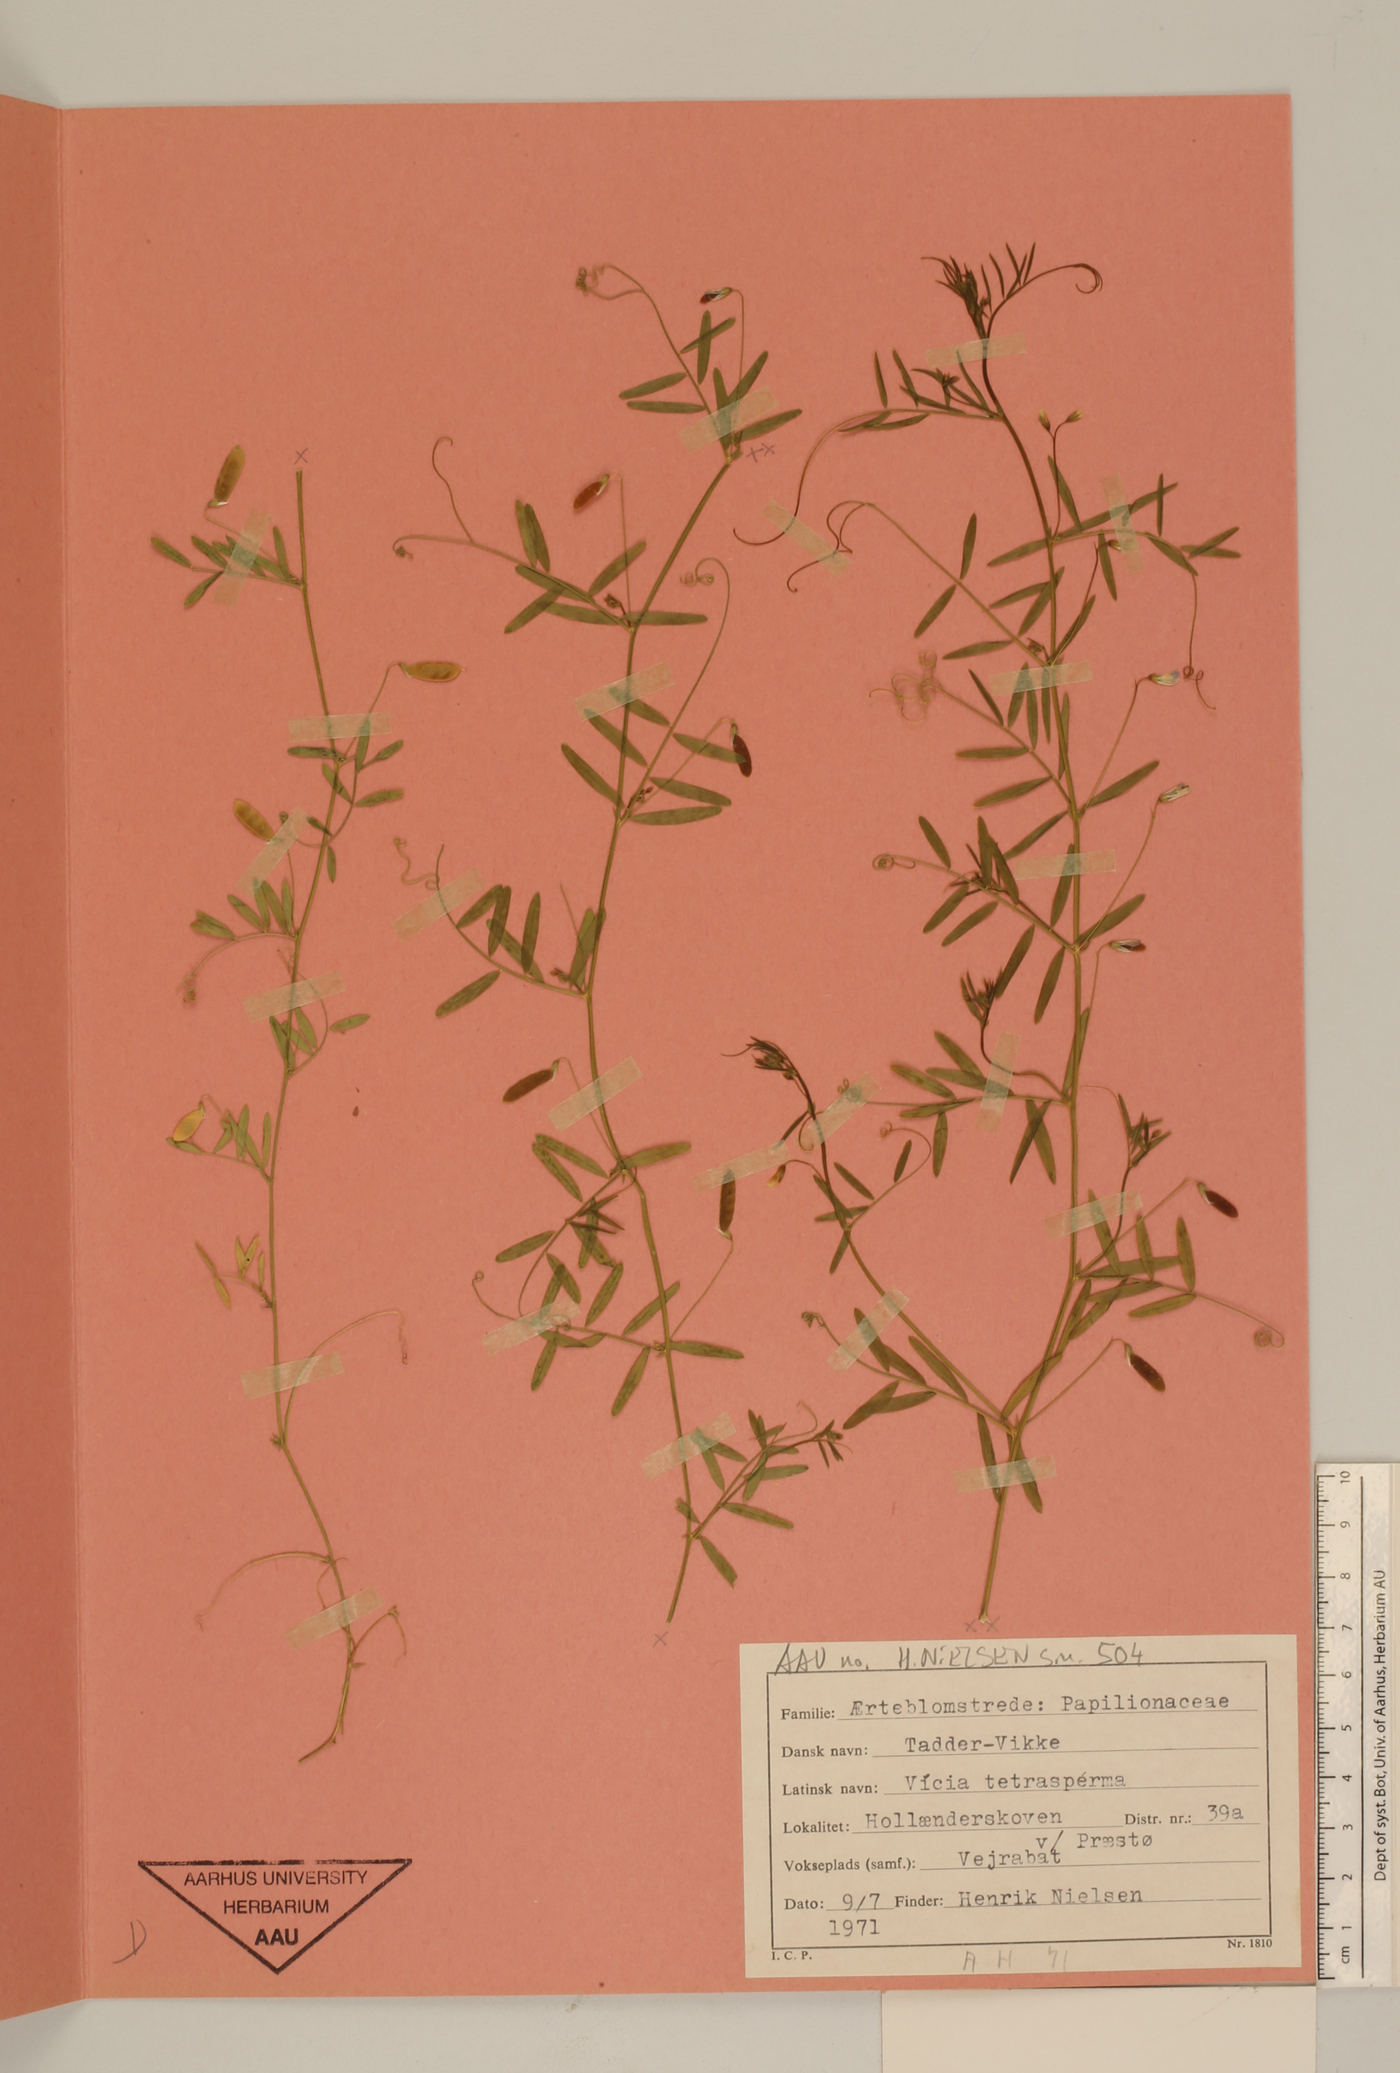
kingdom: Plantae
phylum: Tracheophyta
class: Magnoliopsida
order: Fabales
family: Fabaceae
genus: Vicia
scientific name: Vicia tetrasperma
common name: Smooth tare
